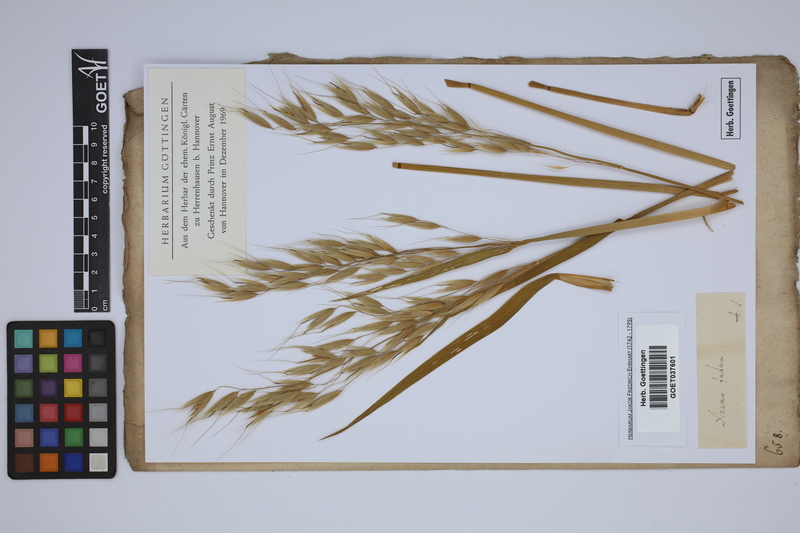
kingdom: Plantae
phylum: Tracheophyta
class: Liliopsida
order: Poales
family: Poaceae
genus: Avena
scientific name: Avena fatua
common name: Wild oat
